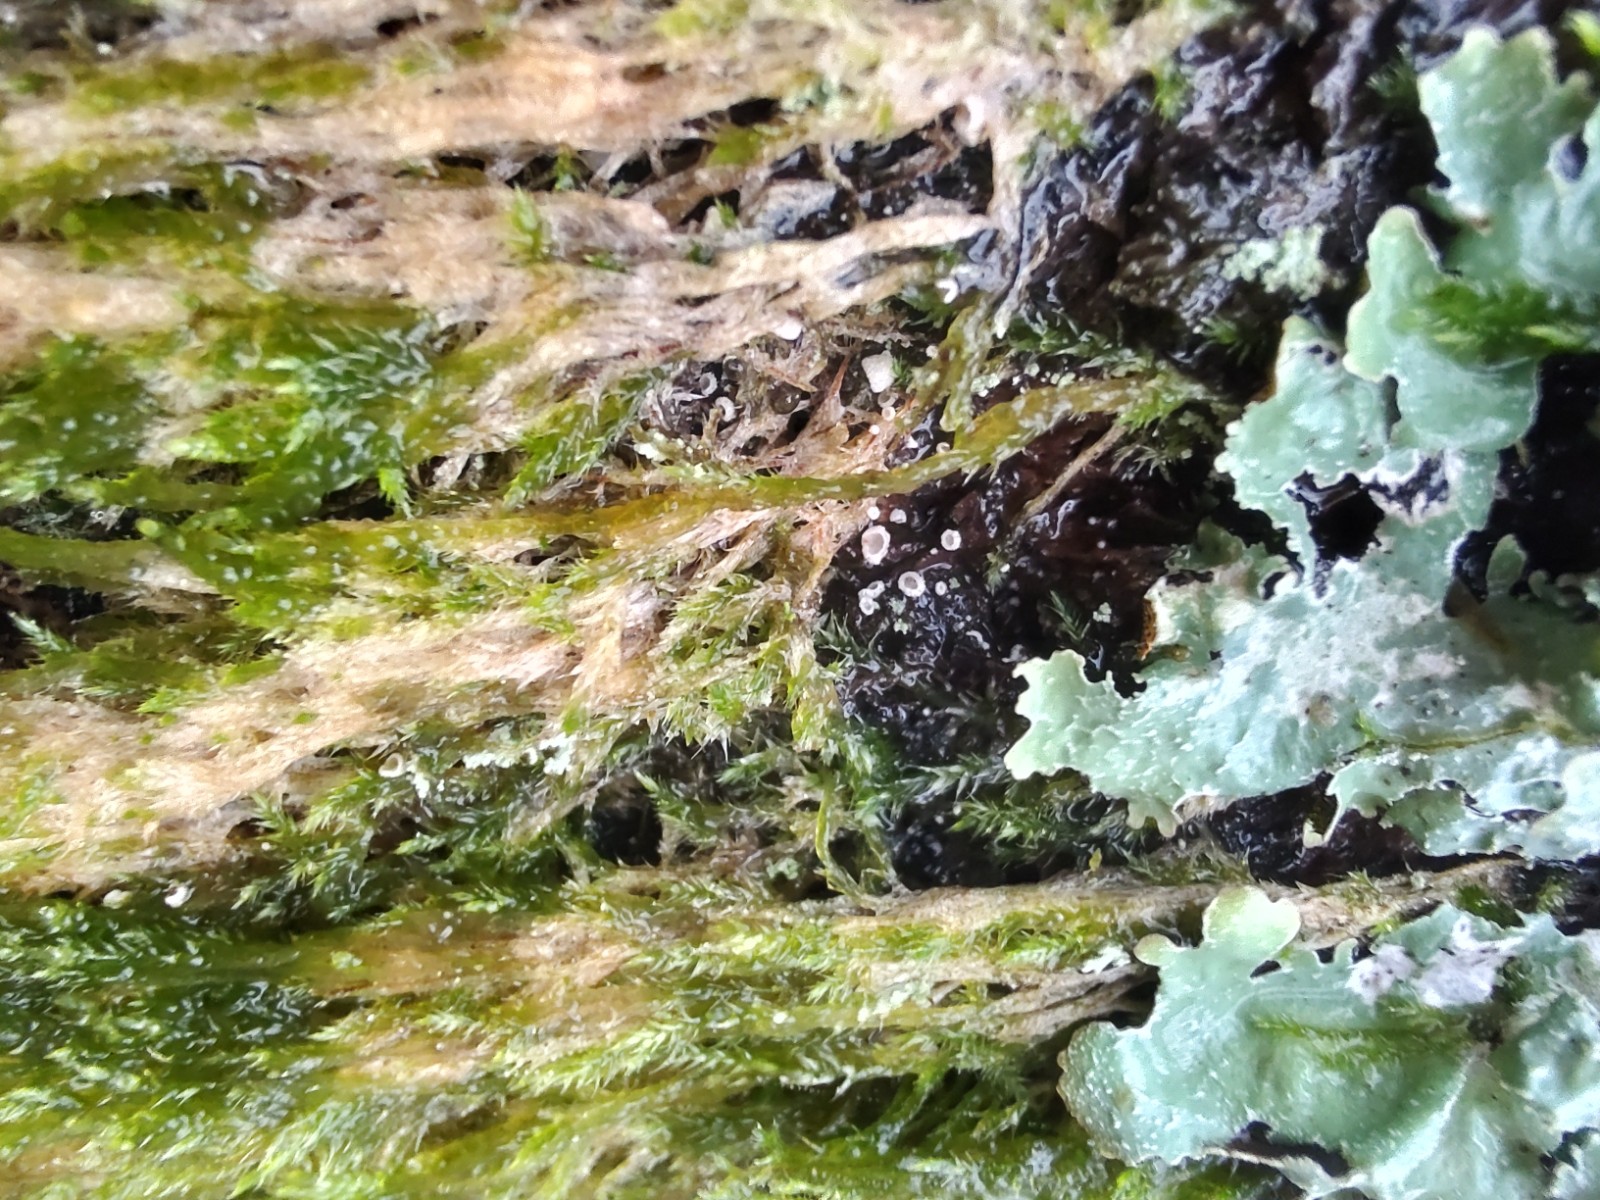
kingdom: Fungi
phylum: Basidiomycota
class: Agaricomycetes
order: Agaricales
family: Chromocyphellaceae
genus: Chromocyphella
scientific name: Chromocyphella muscicola
